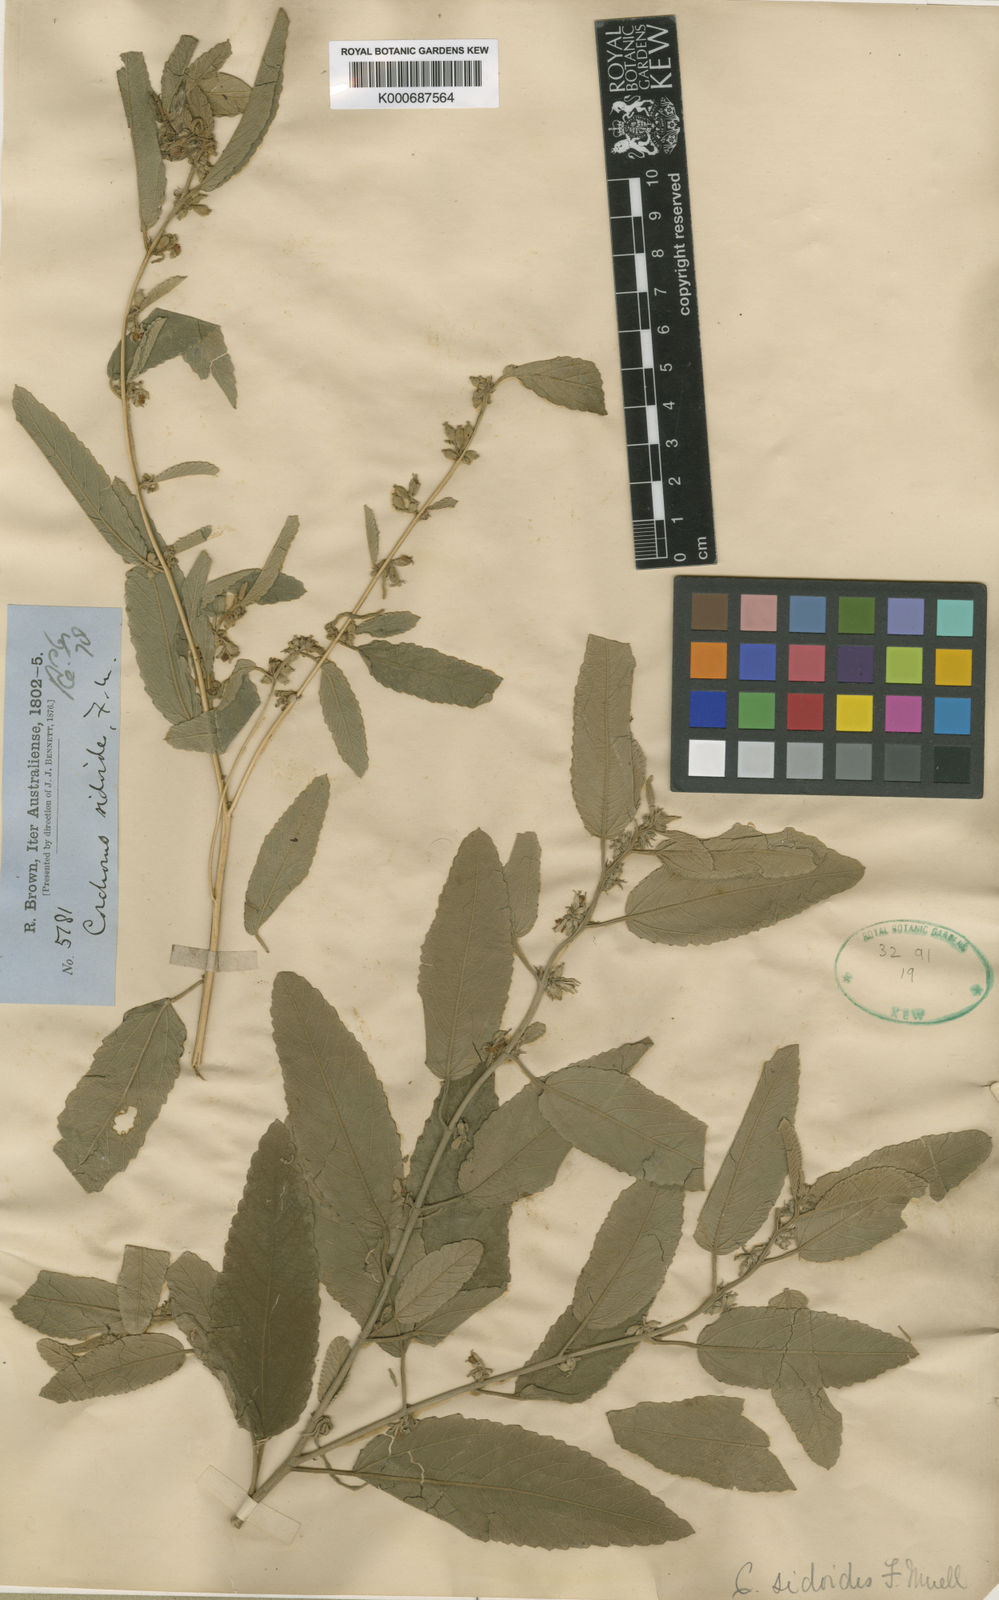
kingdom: Plantae
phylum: Tracheophyta
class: Magnoliopsida
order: Malvales
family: Malvaceae
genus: Corchorus
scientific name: Corchorus sidoides
